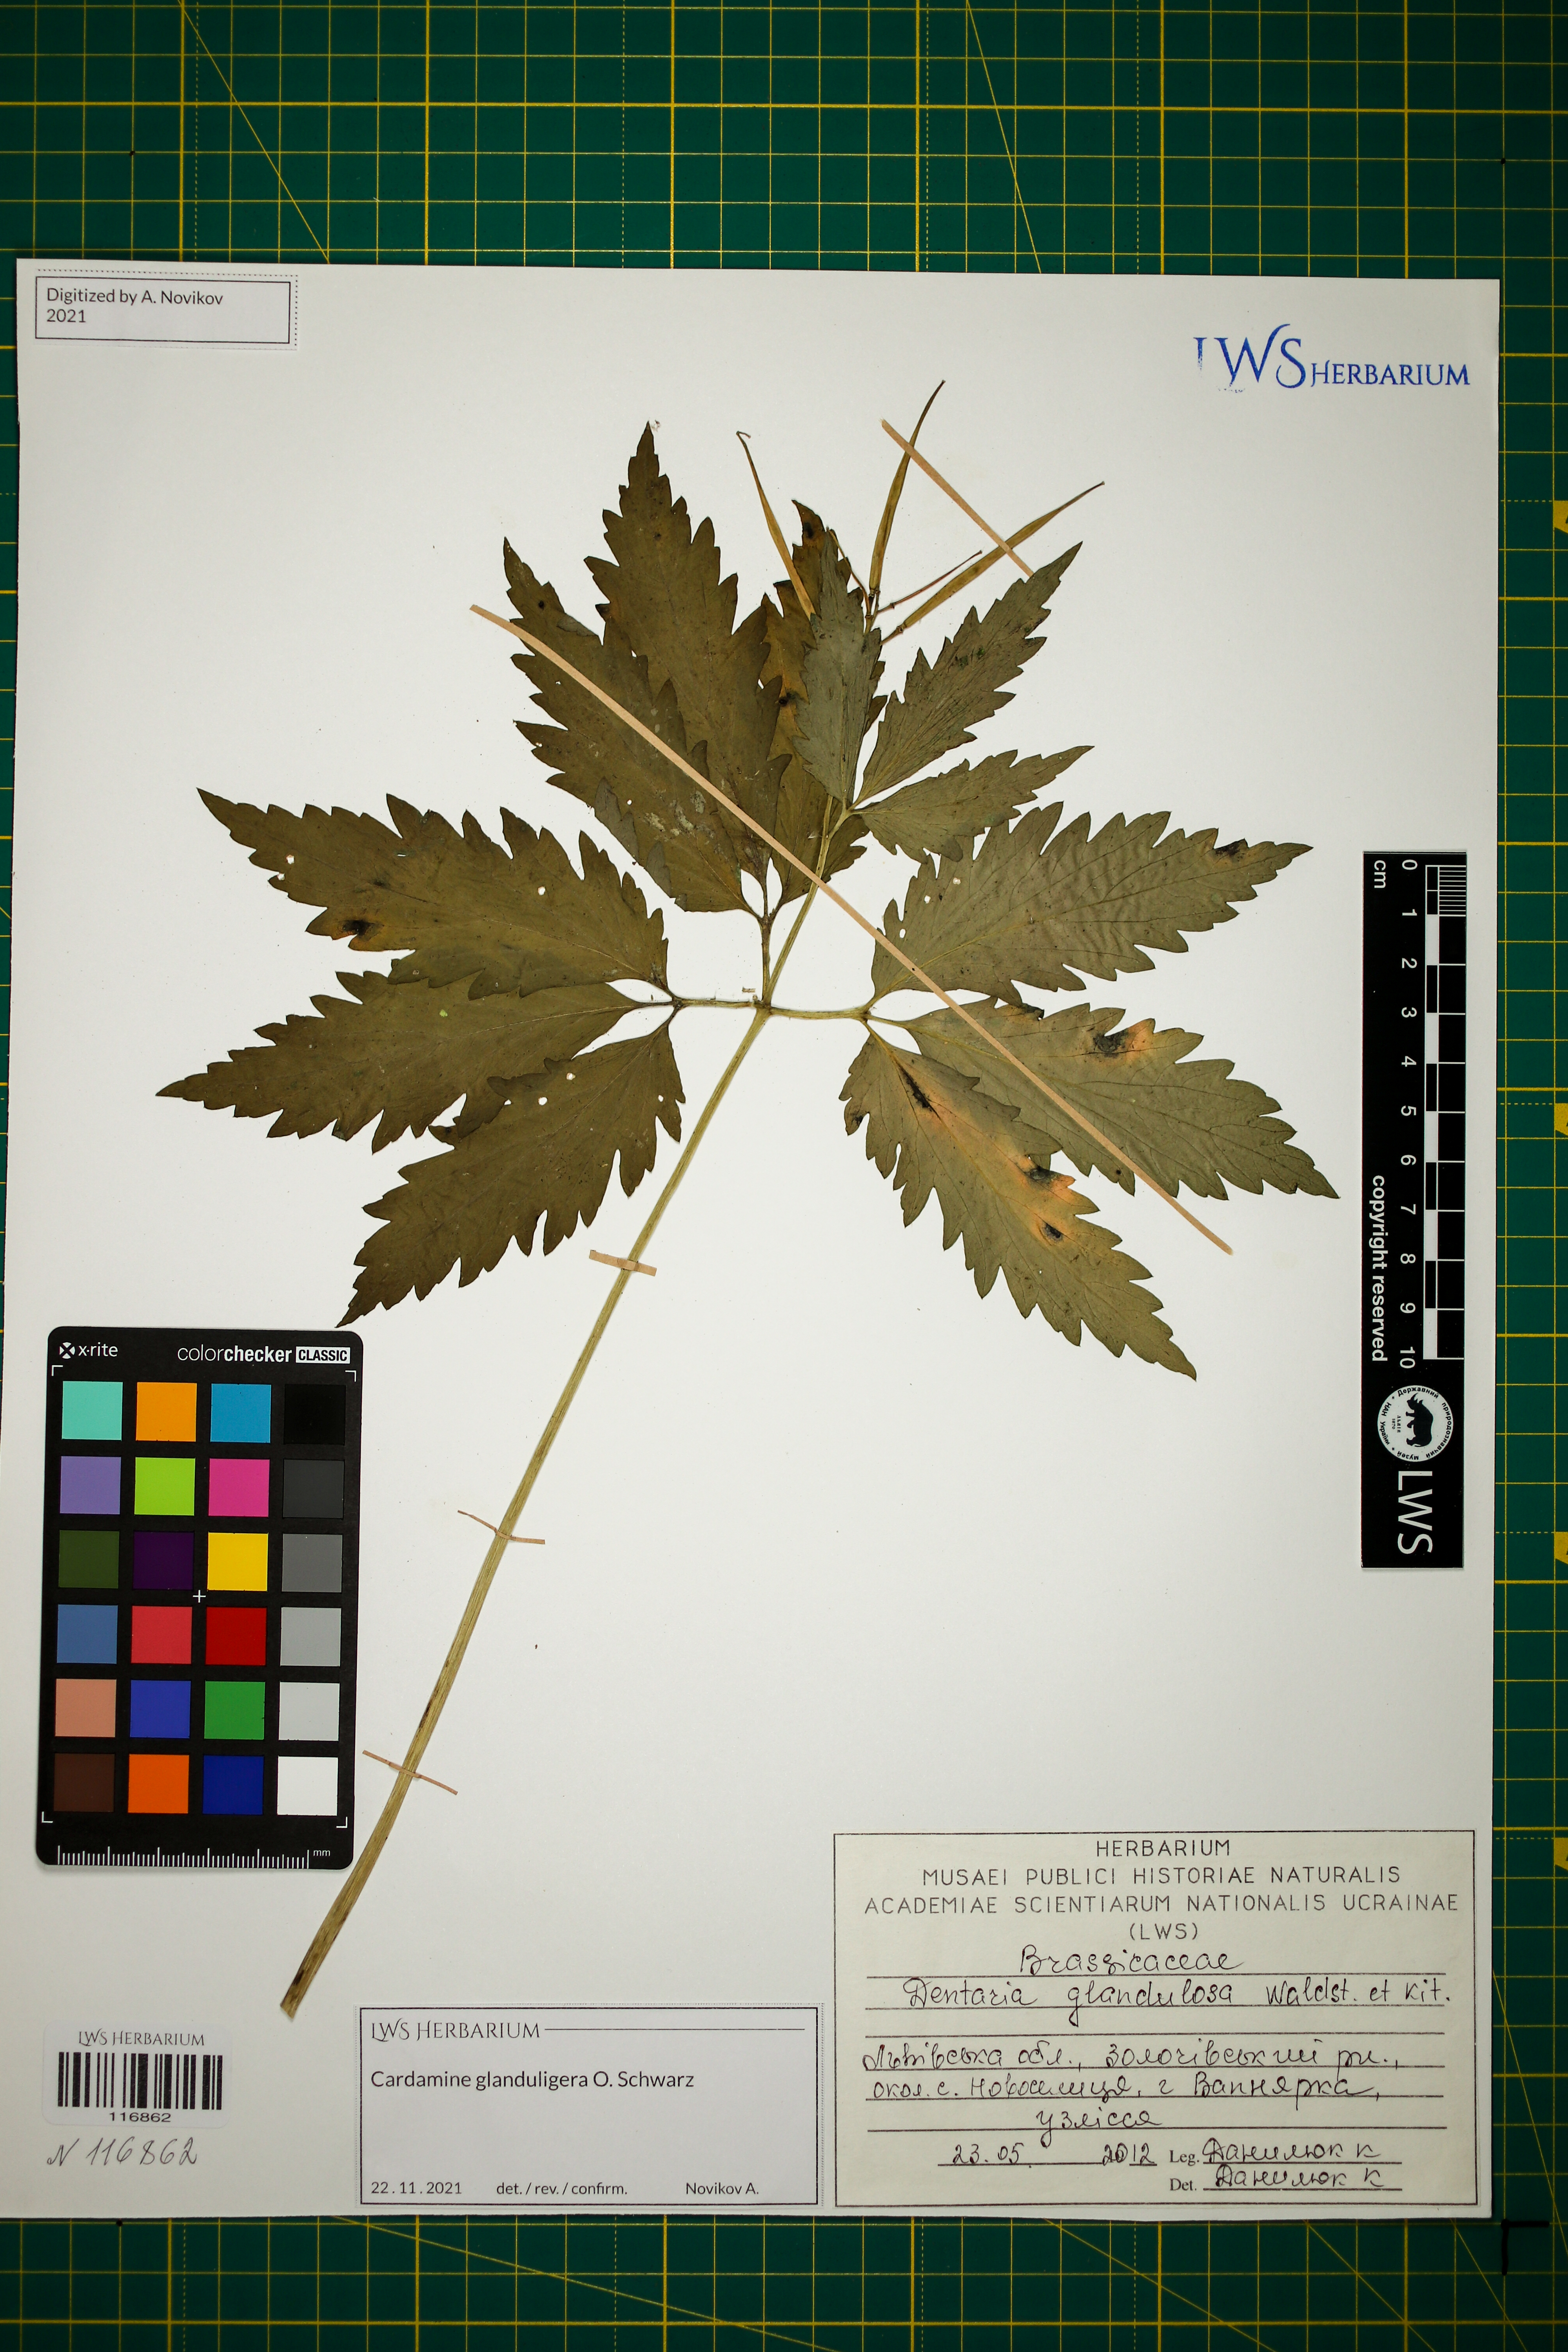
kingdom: Plantae
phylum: Tracheophyta
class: Magnoliopsida
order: Brassicales
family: Brassicaceae
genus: Cardamine
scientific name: Cardamine glanduligera
